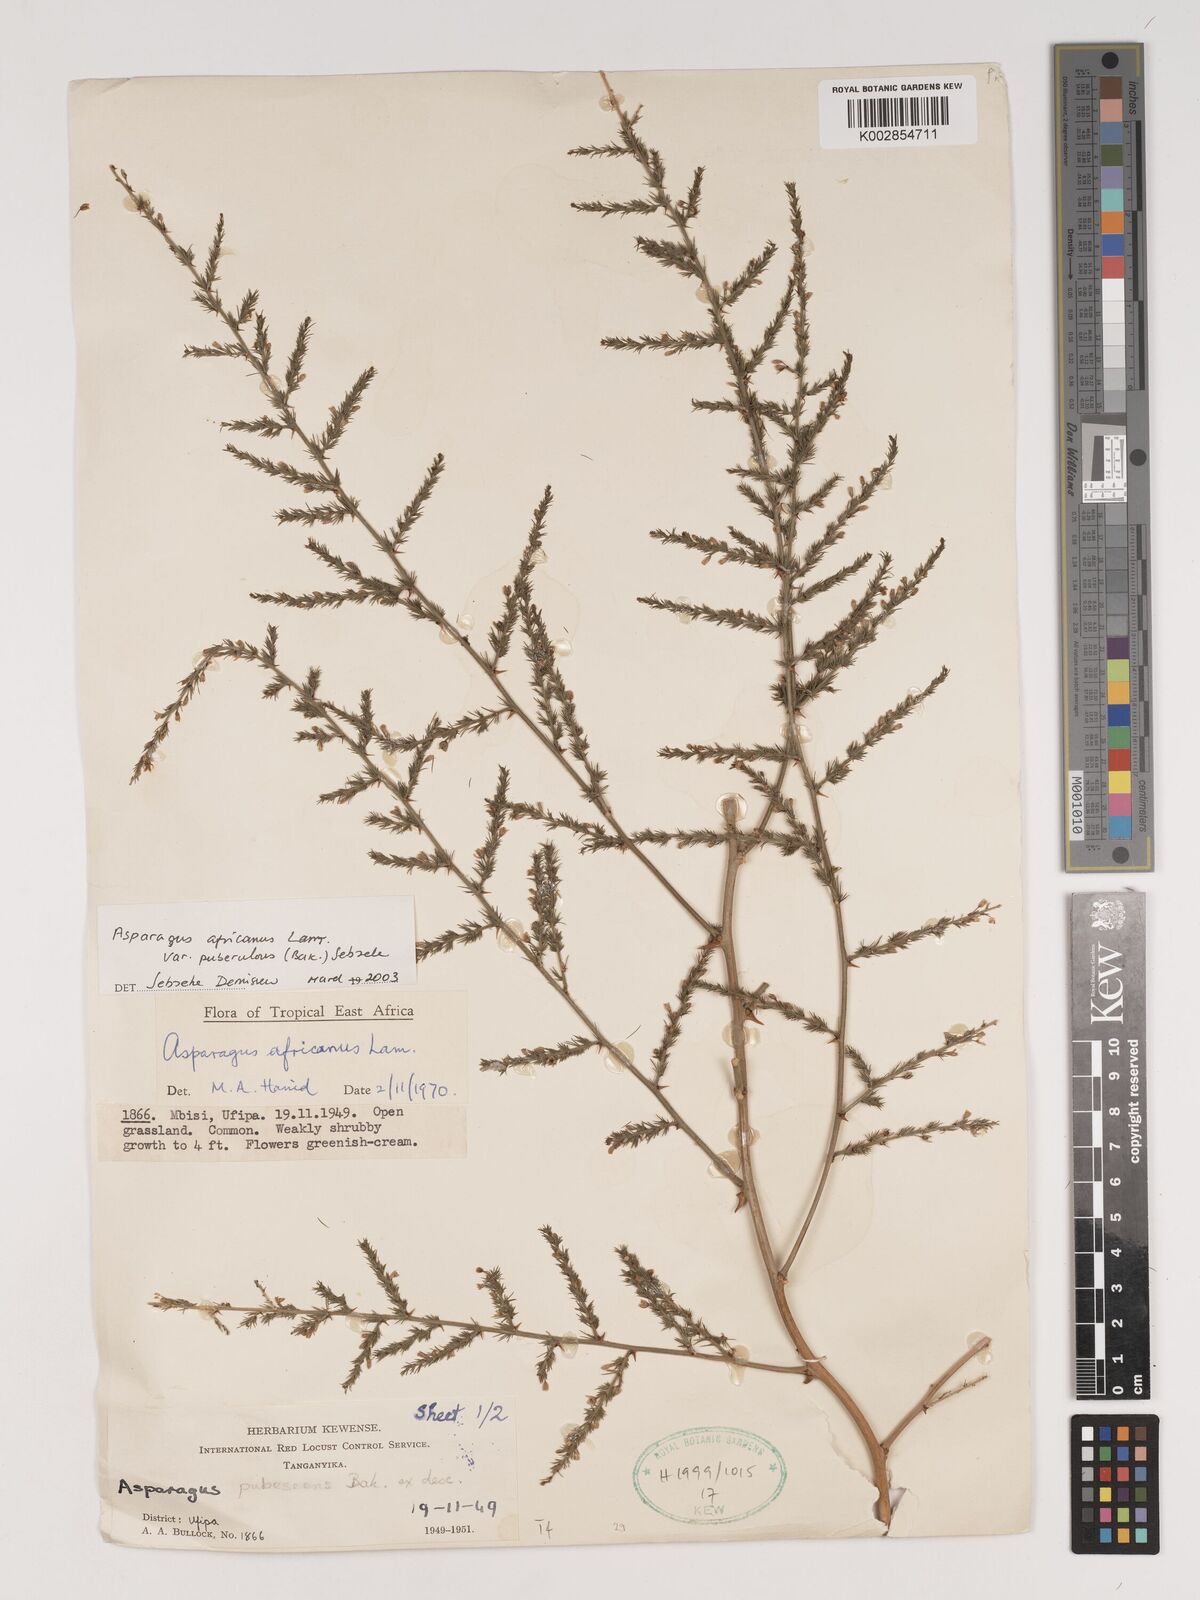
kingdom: Plantae
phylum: Tracheophyta
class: Liliopsida
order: Asparagales
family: Asparagaceae
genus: Asparagus
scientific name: Asparagus africanus
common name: Asparagus-fern
